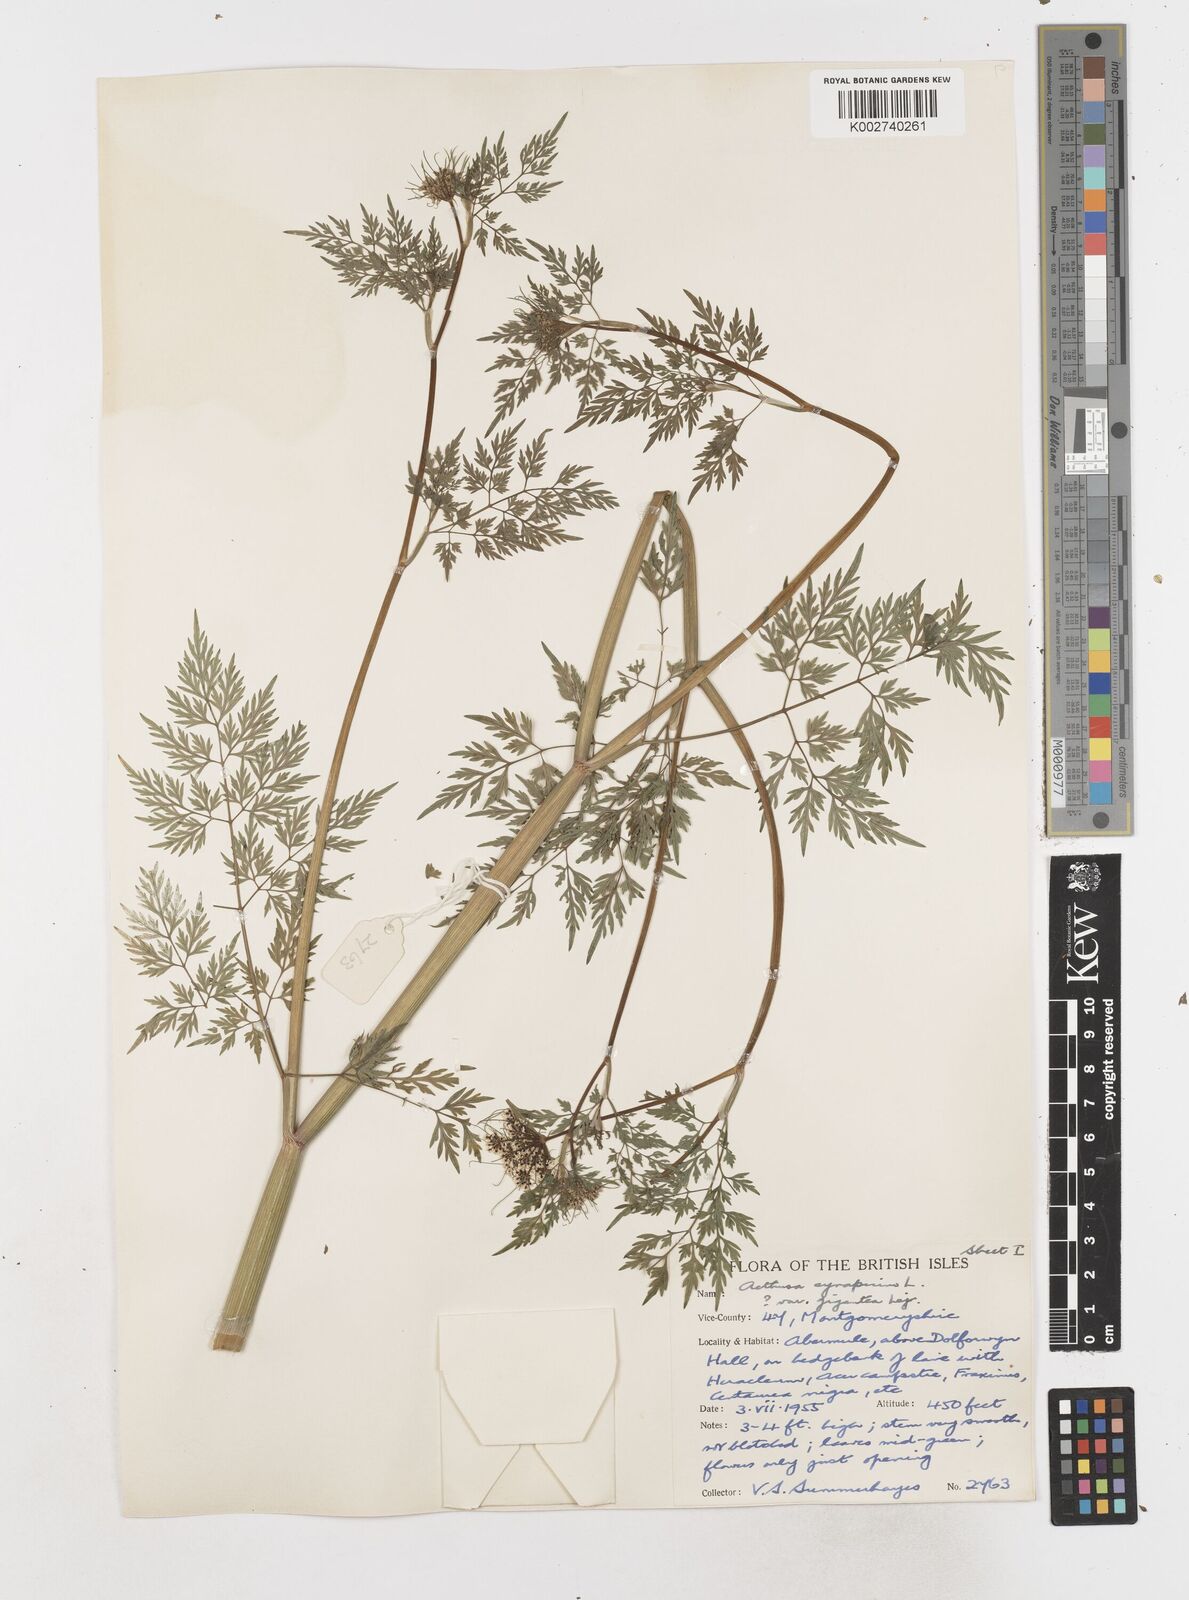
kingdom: Plantae
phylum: Tracheophyta
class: Magnoliopsida
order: Apiales
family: Apiaceae
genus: Aethusa
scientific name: Aethusa cynapium
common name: Fool's parsley
